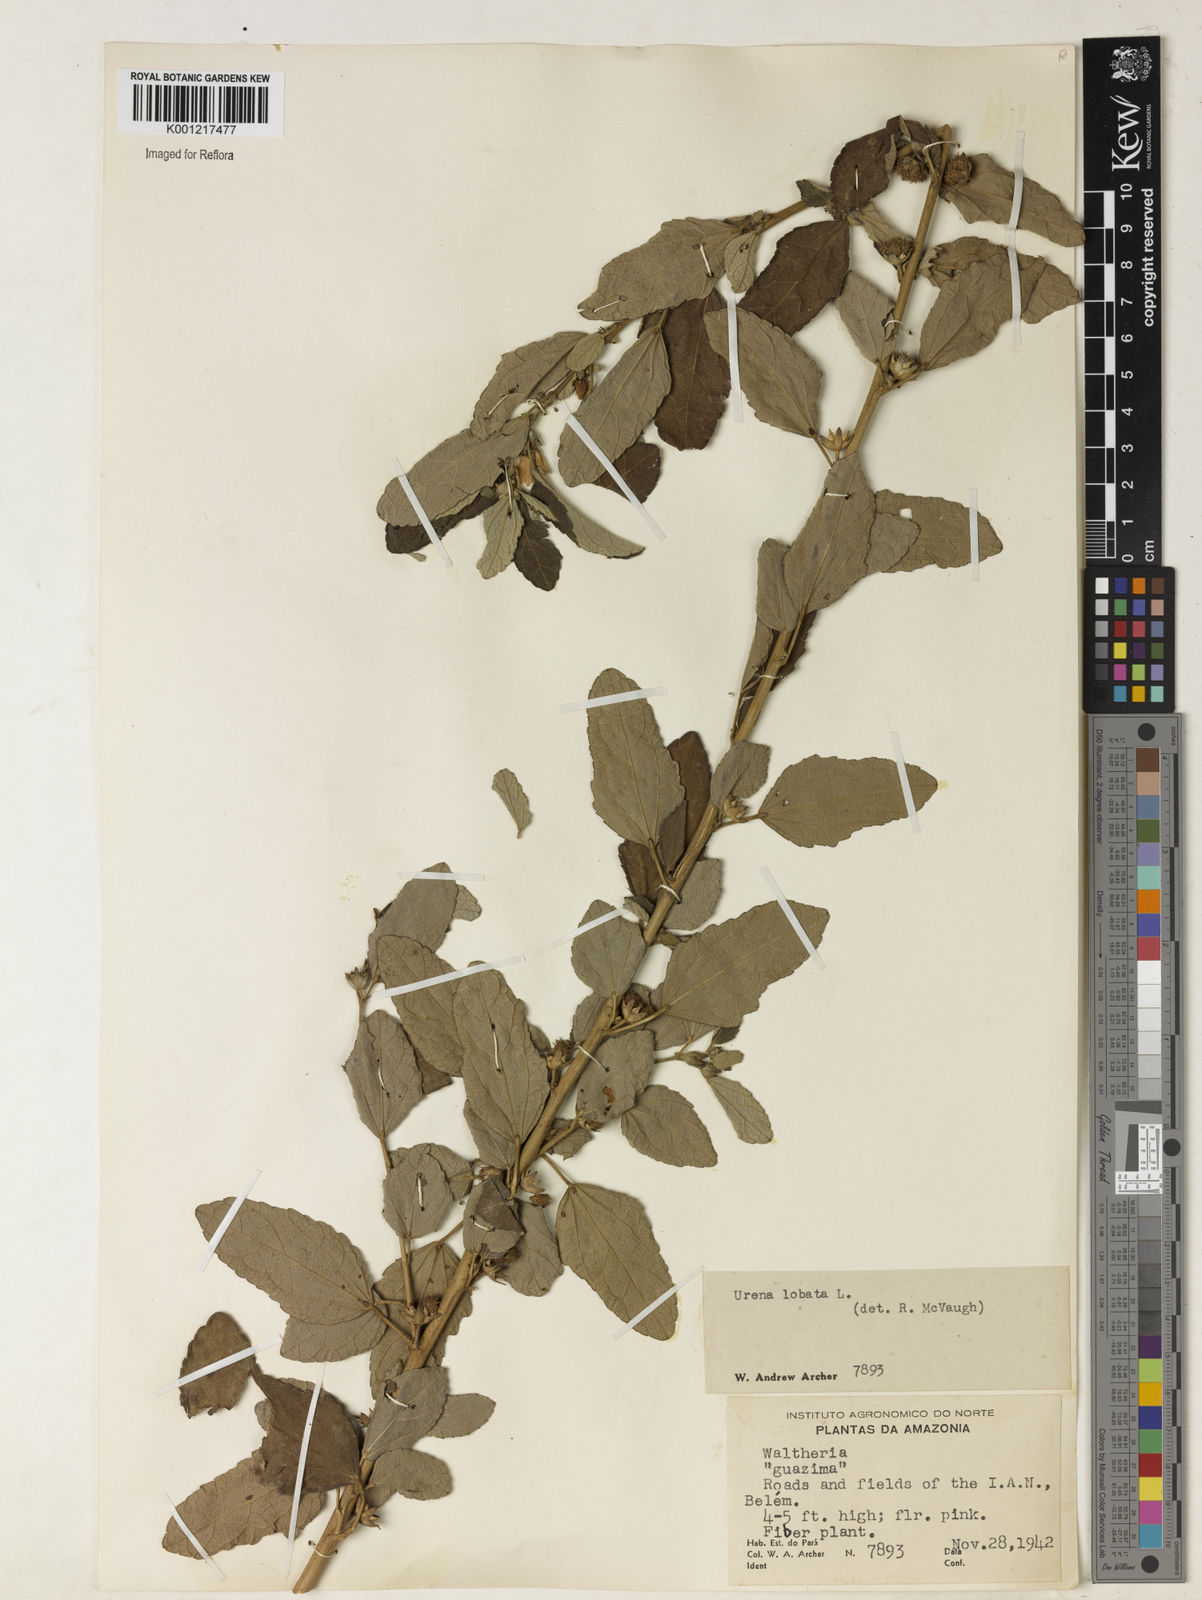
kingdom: Plantae
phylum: Tracheophyta
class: Magnoliopsida
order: Malvales
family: Malvaceae
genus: Urena
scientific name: Urena lobata
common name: Caesarweed
